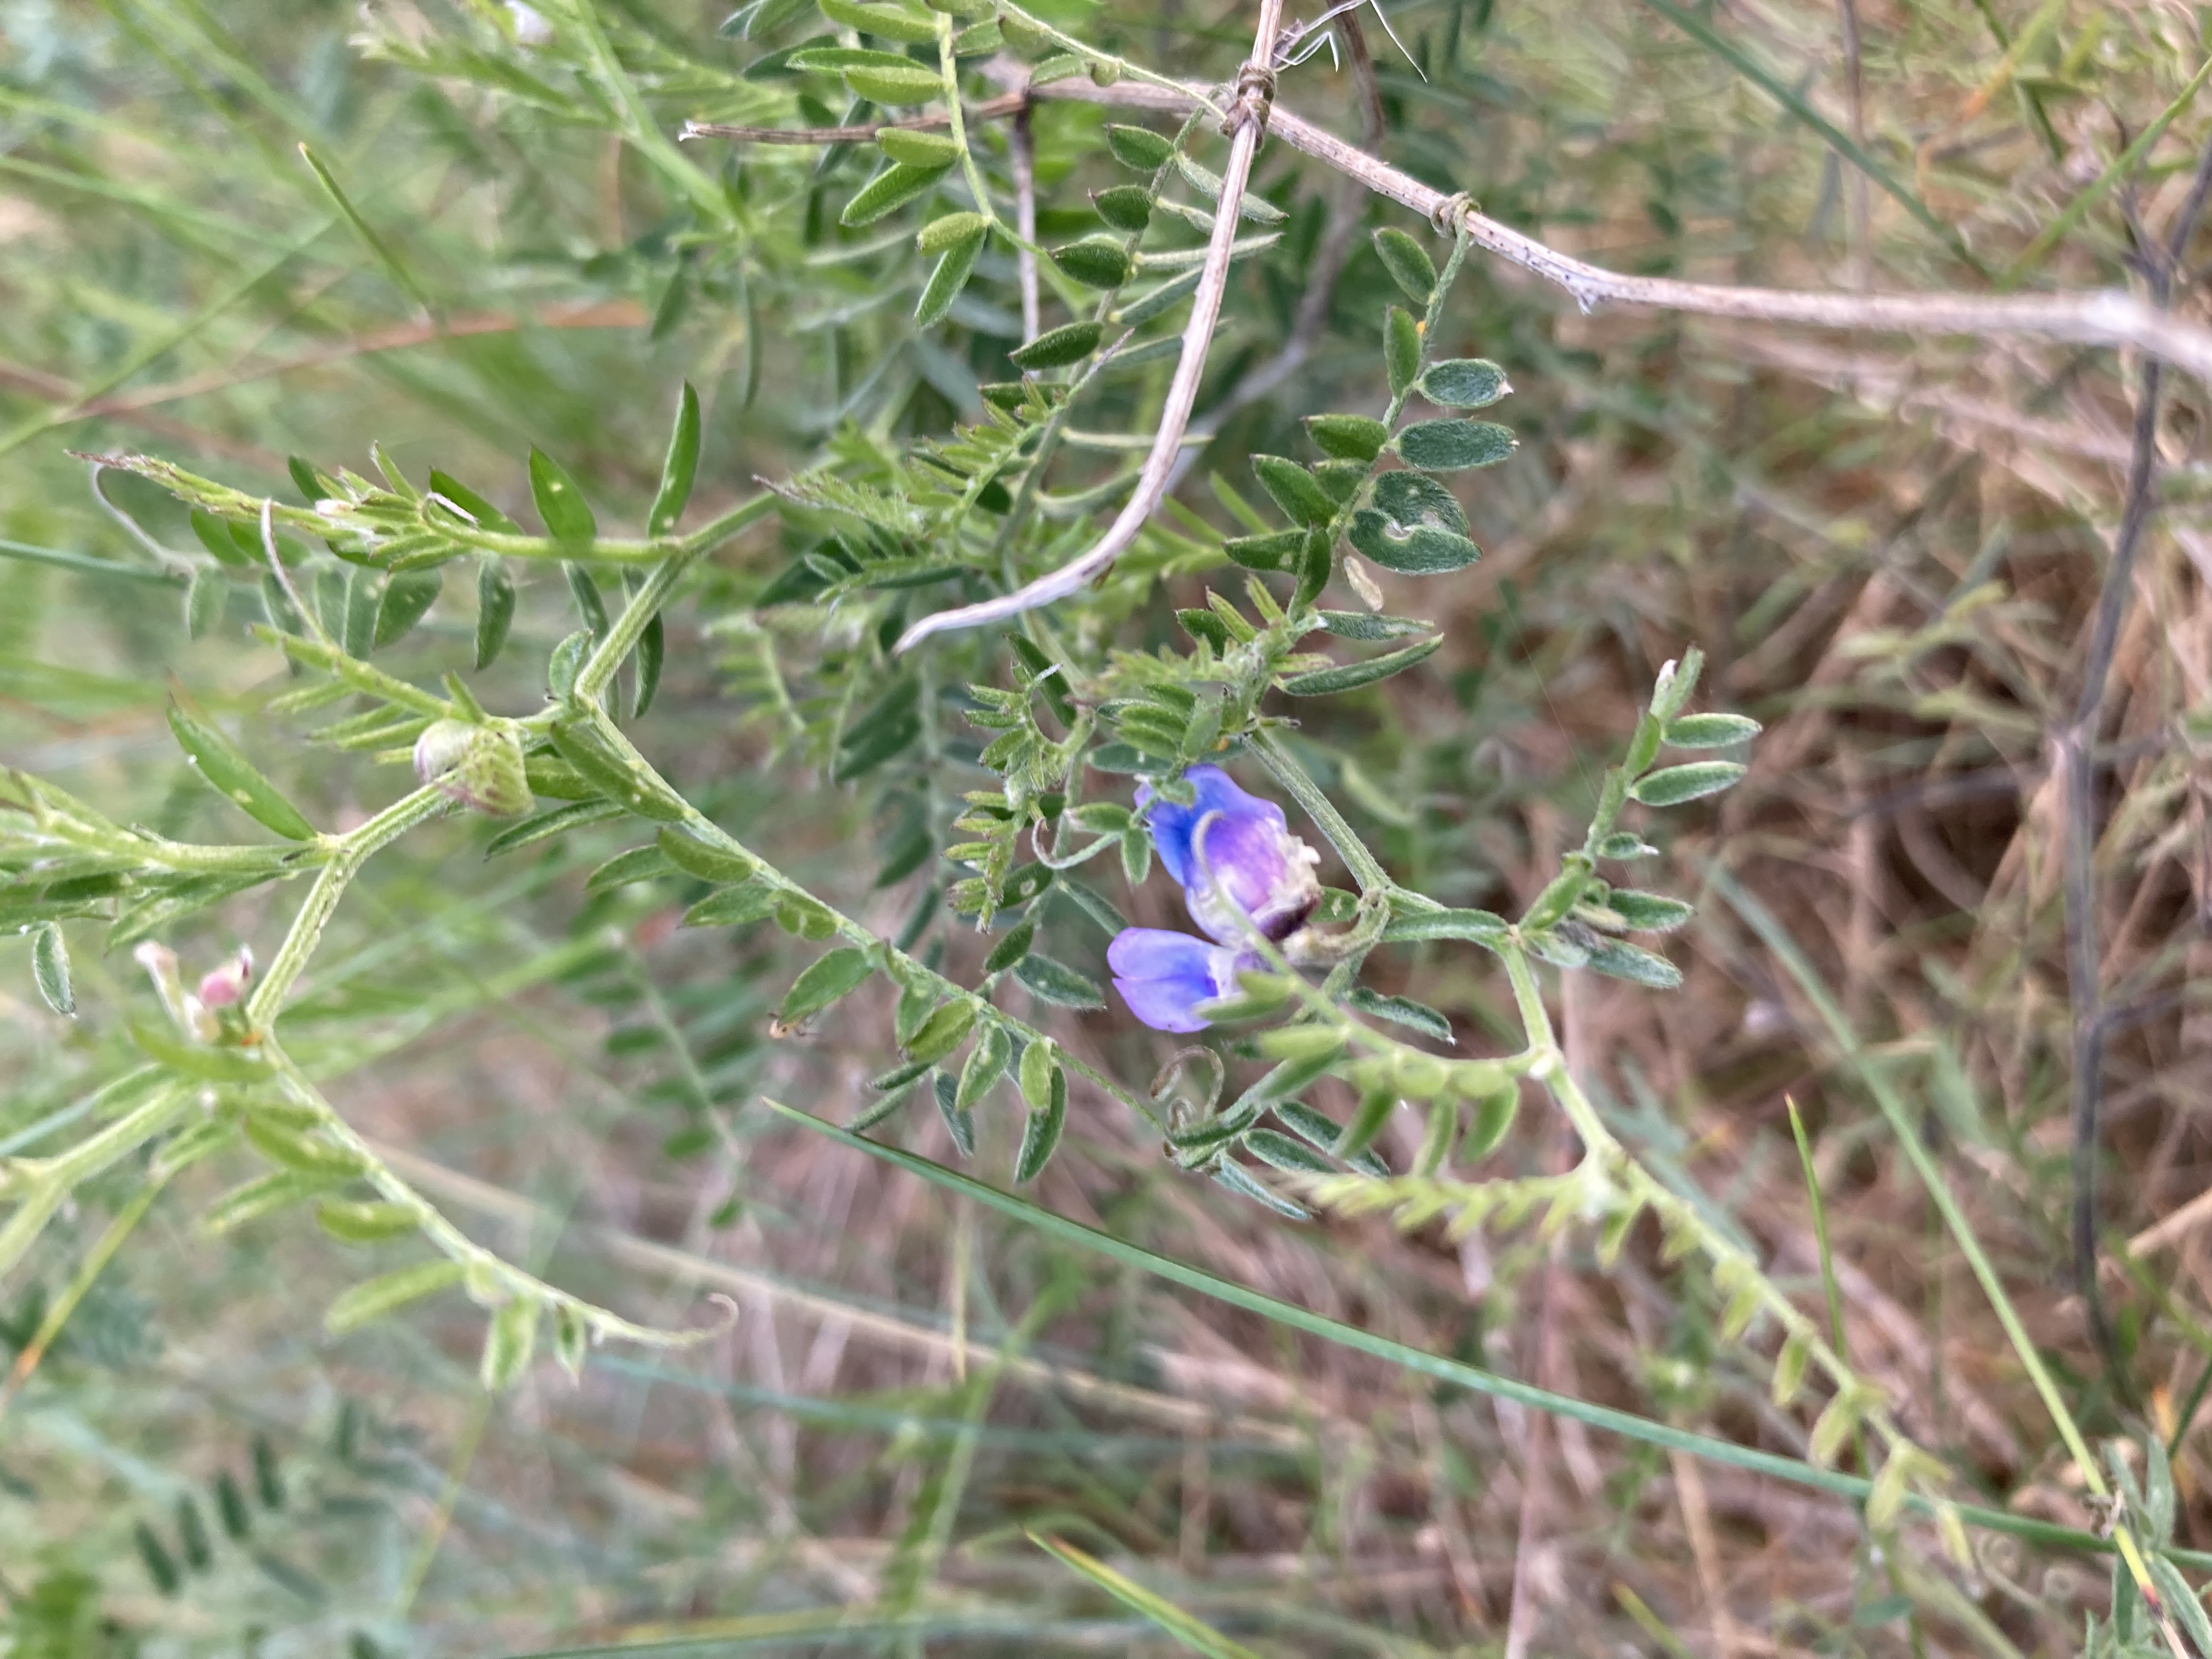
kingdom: Plantae
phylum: Tracheophyta
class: Magnoliopsida
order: Fabales
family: Fabaceae
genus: Vicia
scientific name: Vicia cracca
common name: Muse-vikke
